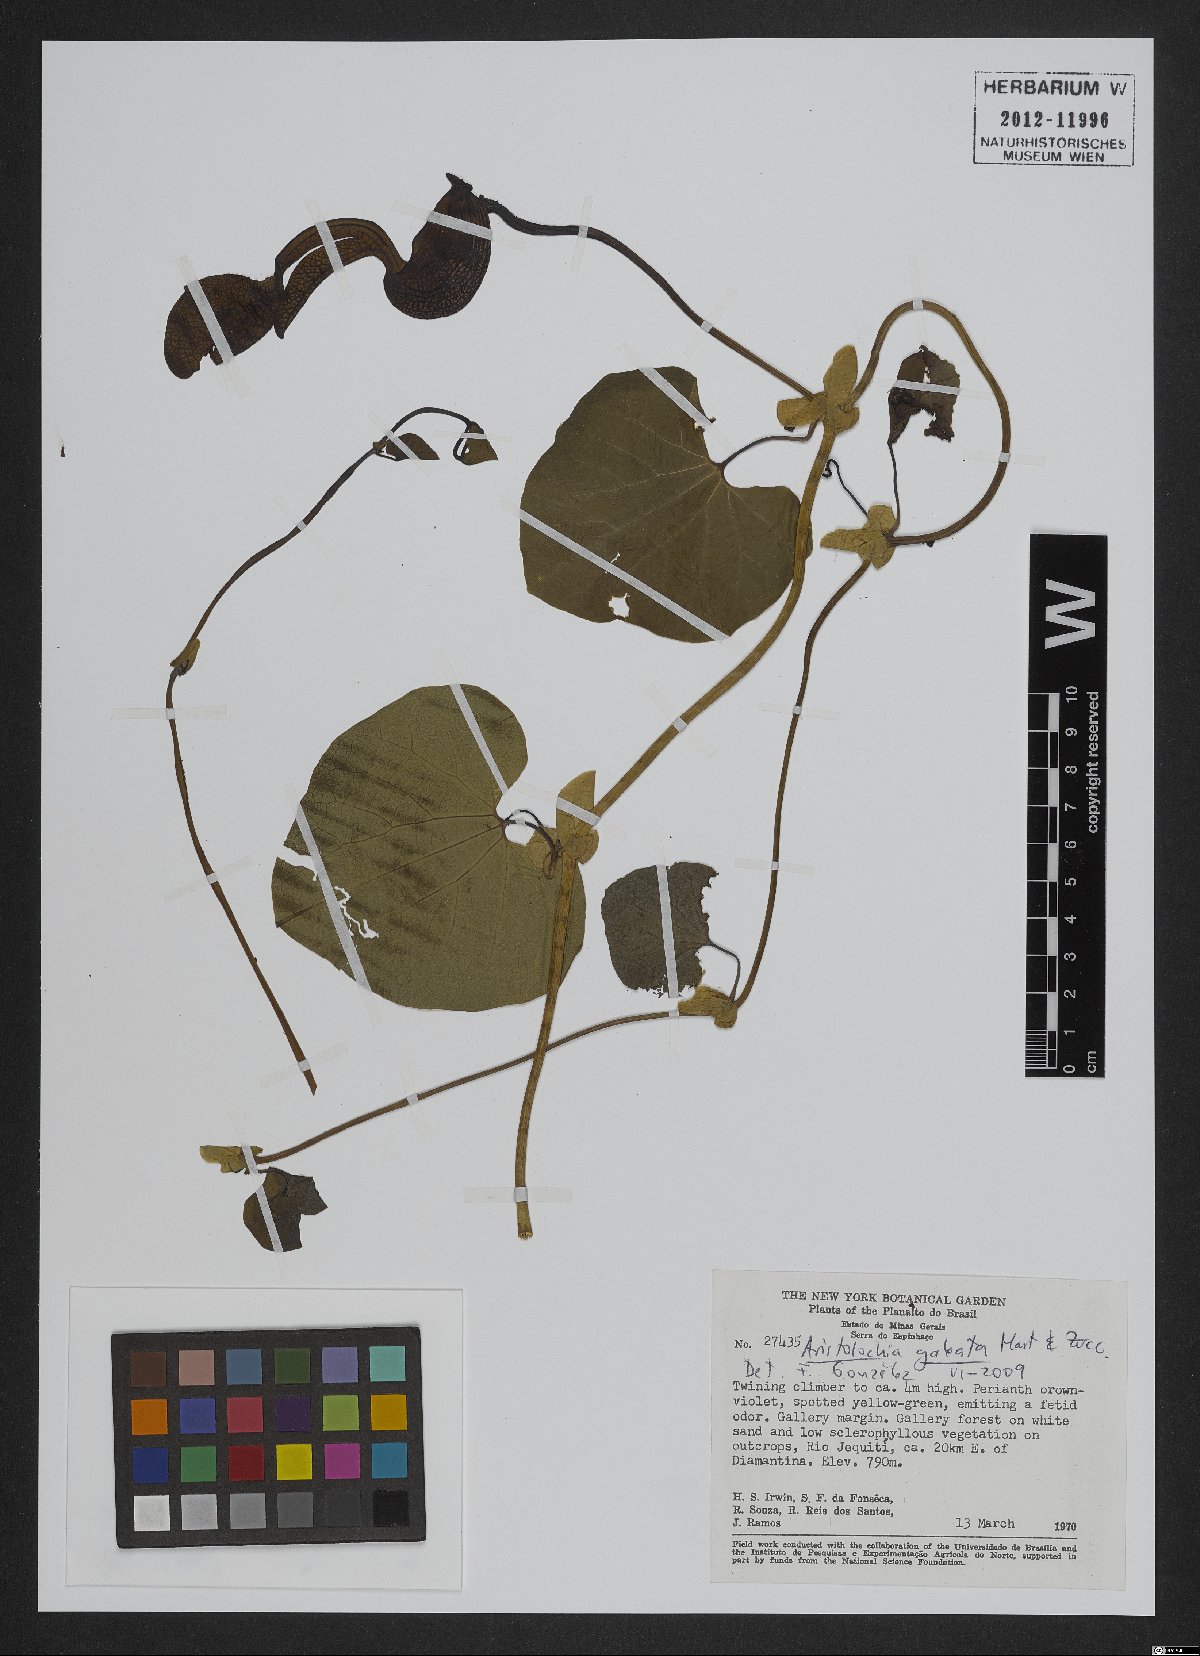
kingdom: Plantae
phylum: Tracheophyta
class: Magnoliopsida
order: Piperales
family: Aristolochiaceae
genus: Aristolochia
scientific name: Aristolochia
